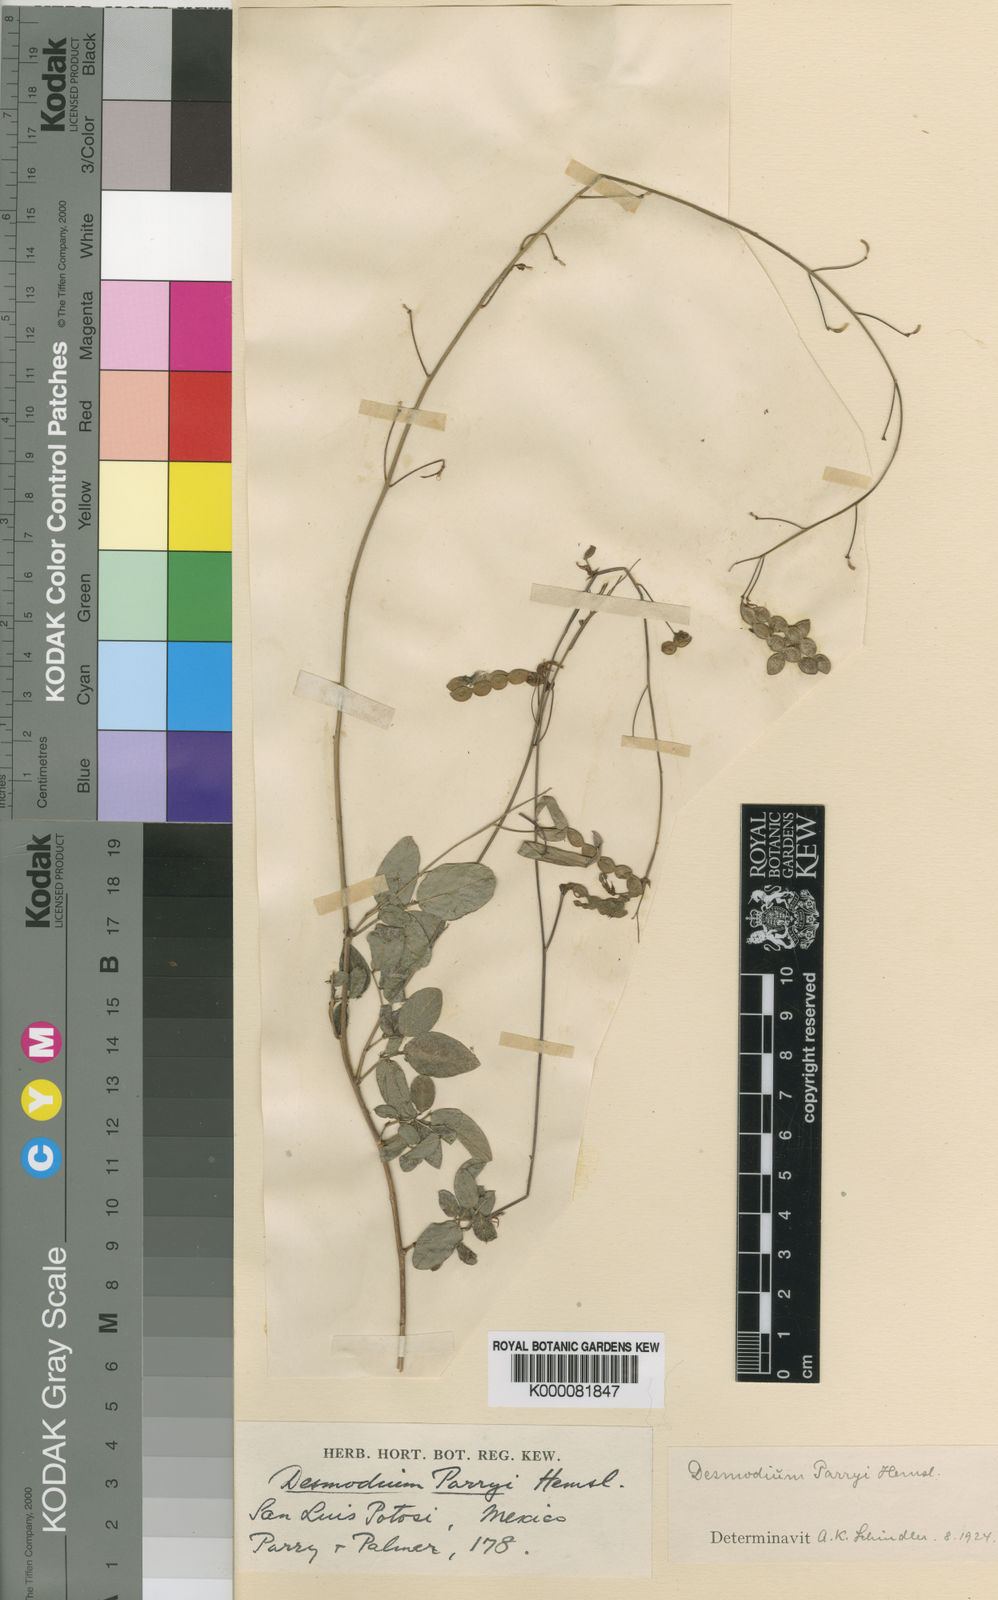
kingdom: Plantae
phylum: Tracheophyta
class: Magnoliopsida
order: Fabales
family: Fabaceae
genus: Desmodium
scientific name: Desmodium grahamii
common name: Graham's tick-trefoil
